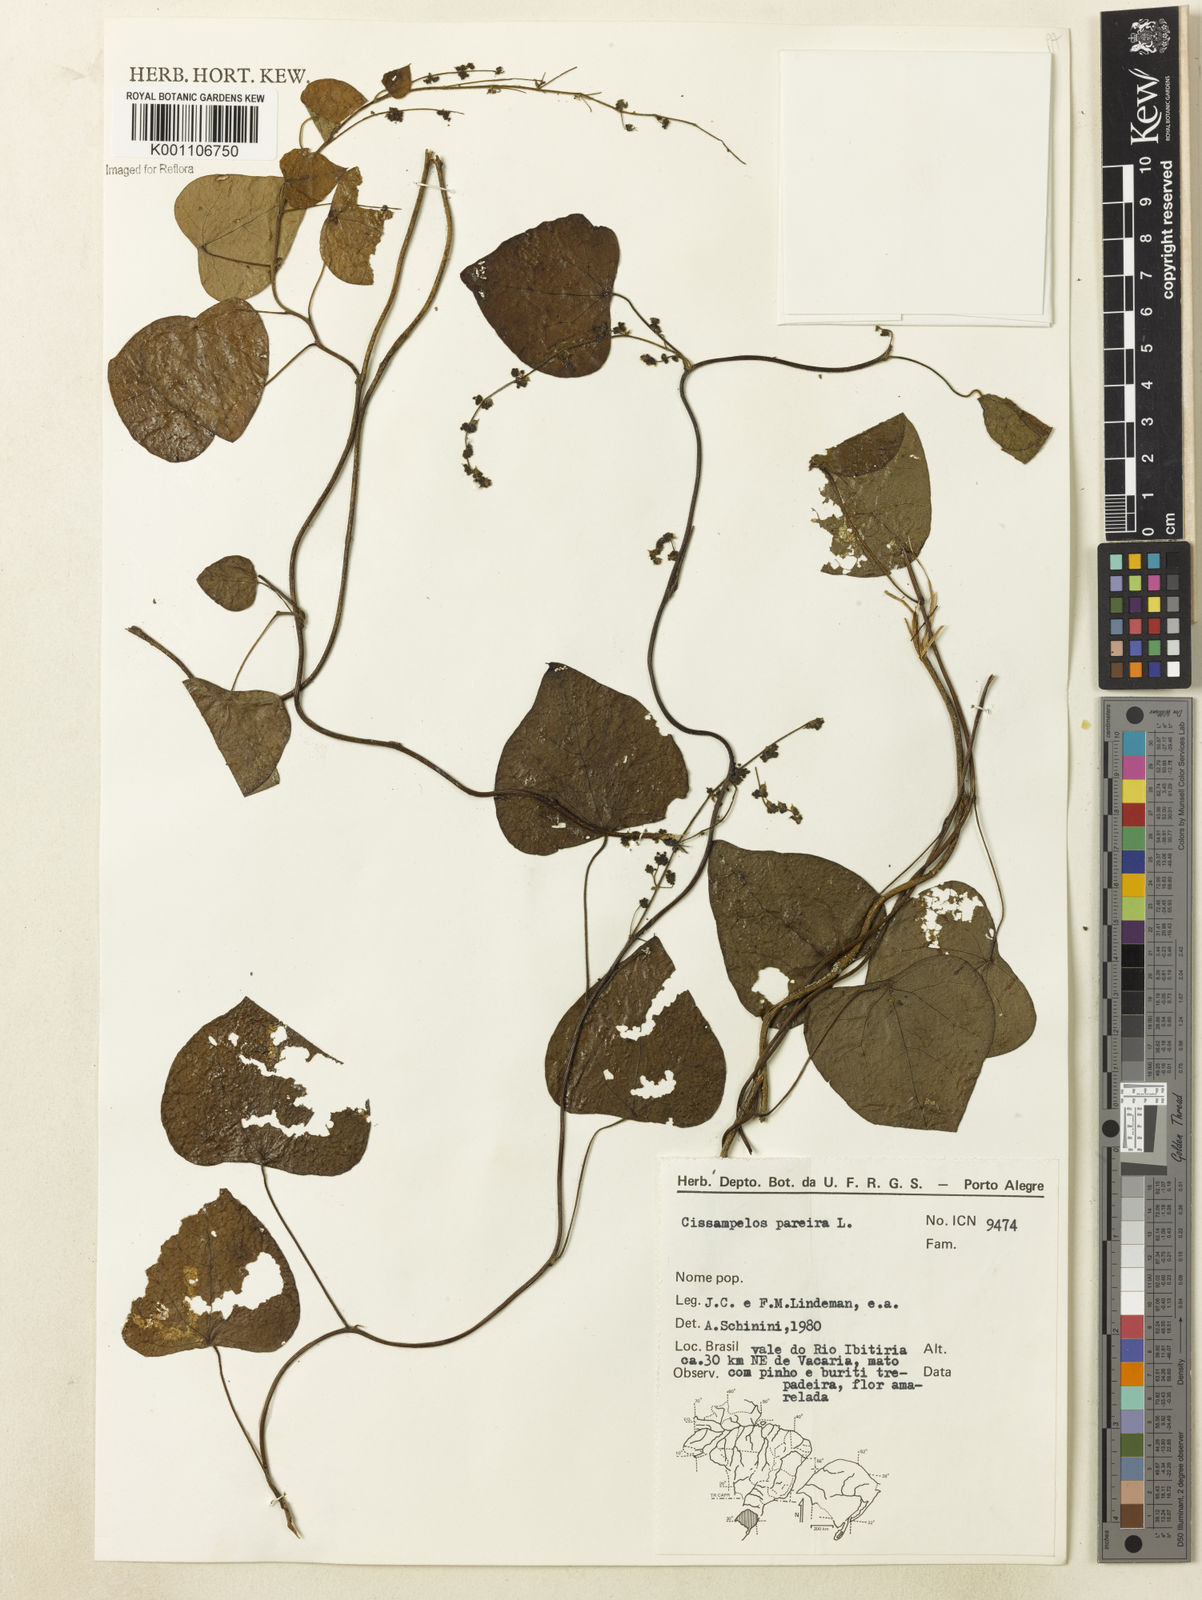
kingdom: Plantae
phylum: Tracheophyta
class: Magnoliopsida
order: Ranunculales
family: Menispermaceae
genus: Cissampelos
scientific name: Cissampelos pareira
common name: Velvetleaf
